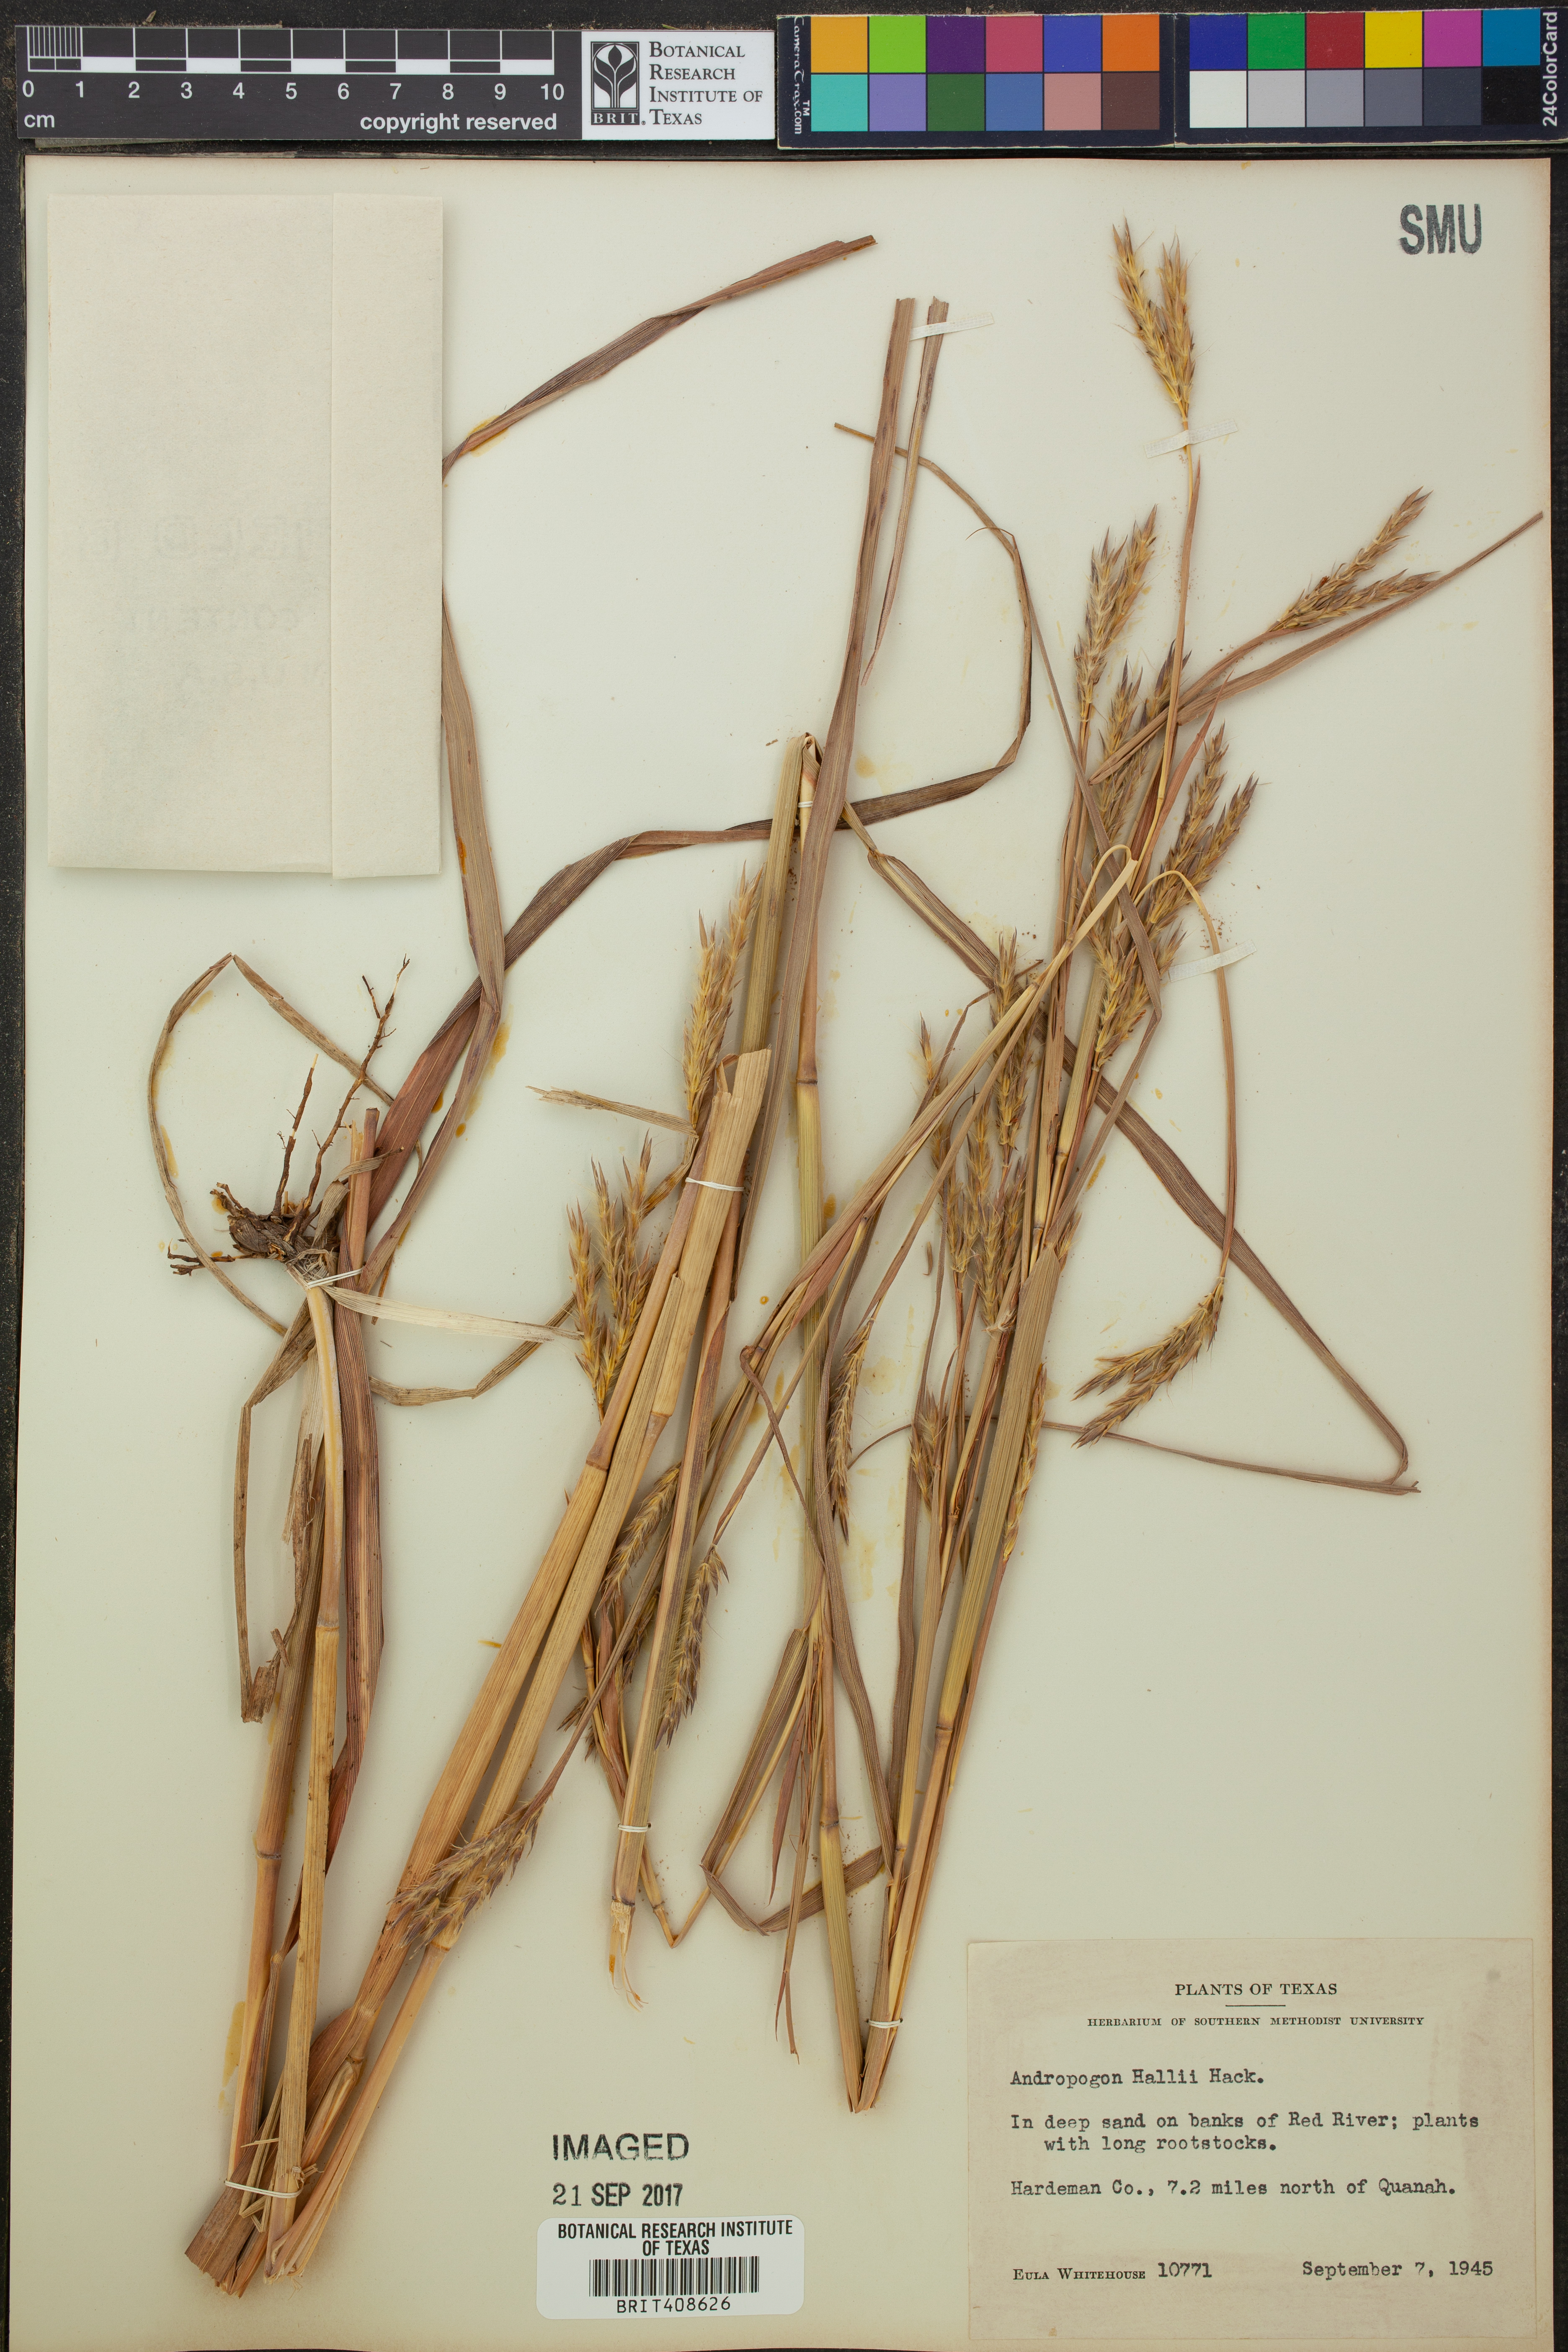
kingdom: Plantae
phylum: Tracheophyta
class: Liliopsida
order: Poales
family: Poaceae
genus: Andropogon
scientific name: Andropogon hallii
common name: Sand bluestem
